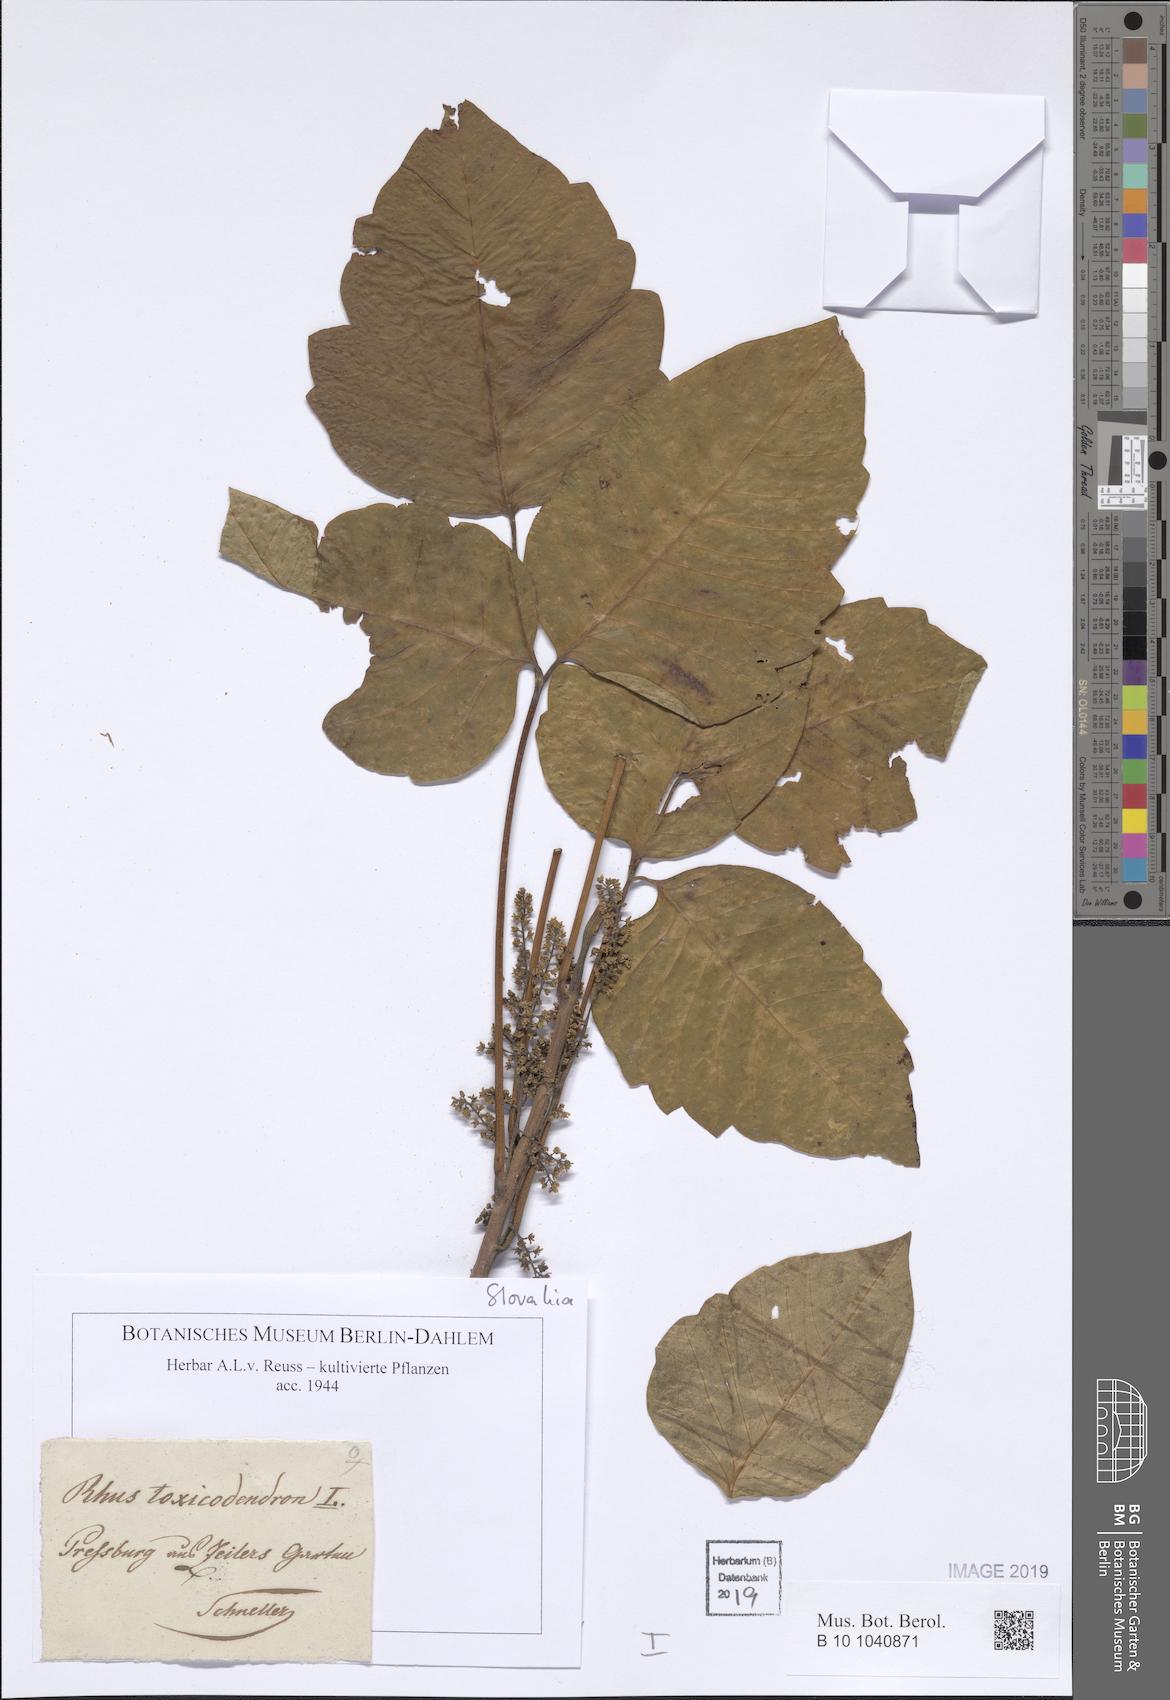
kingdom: Plantae
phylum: Tracheophyta
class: Magnoliopsida
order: Sapindales
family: Anacardiaceae
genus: Toxicodendron
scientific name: Toxicodendron
